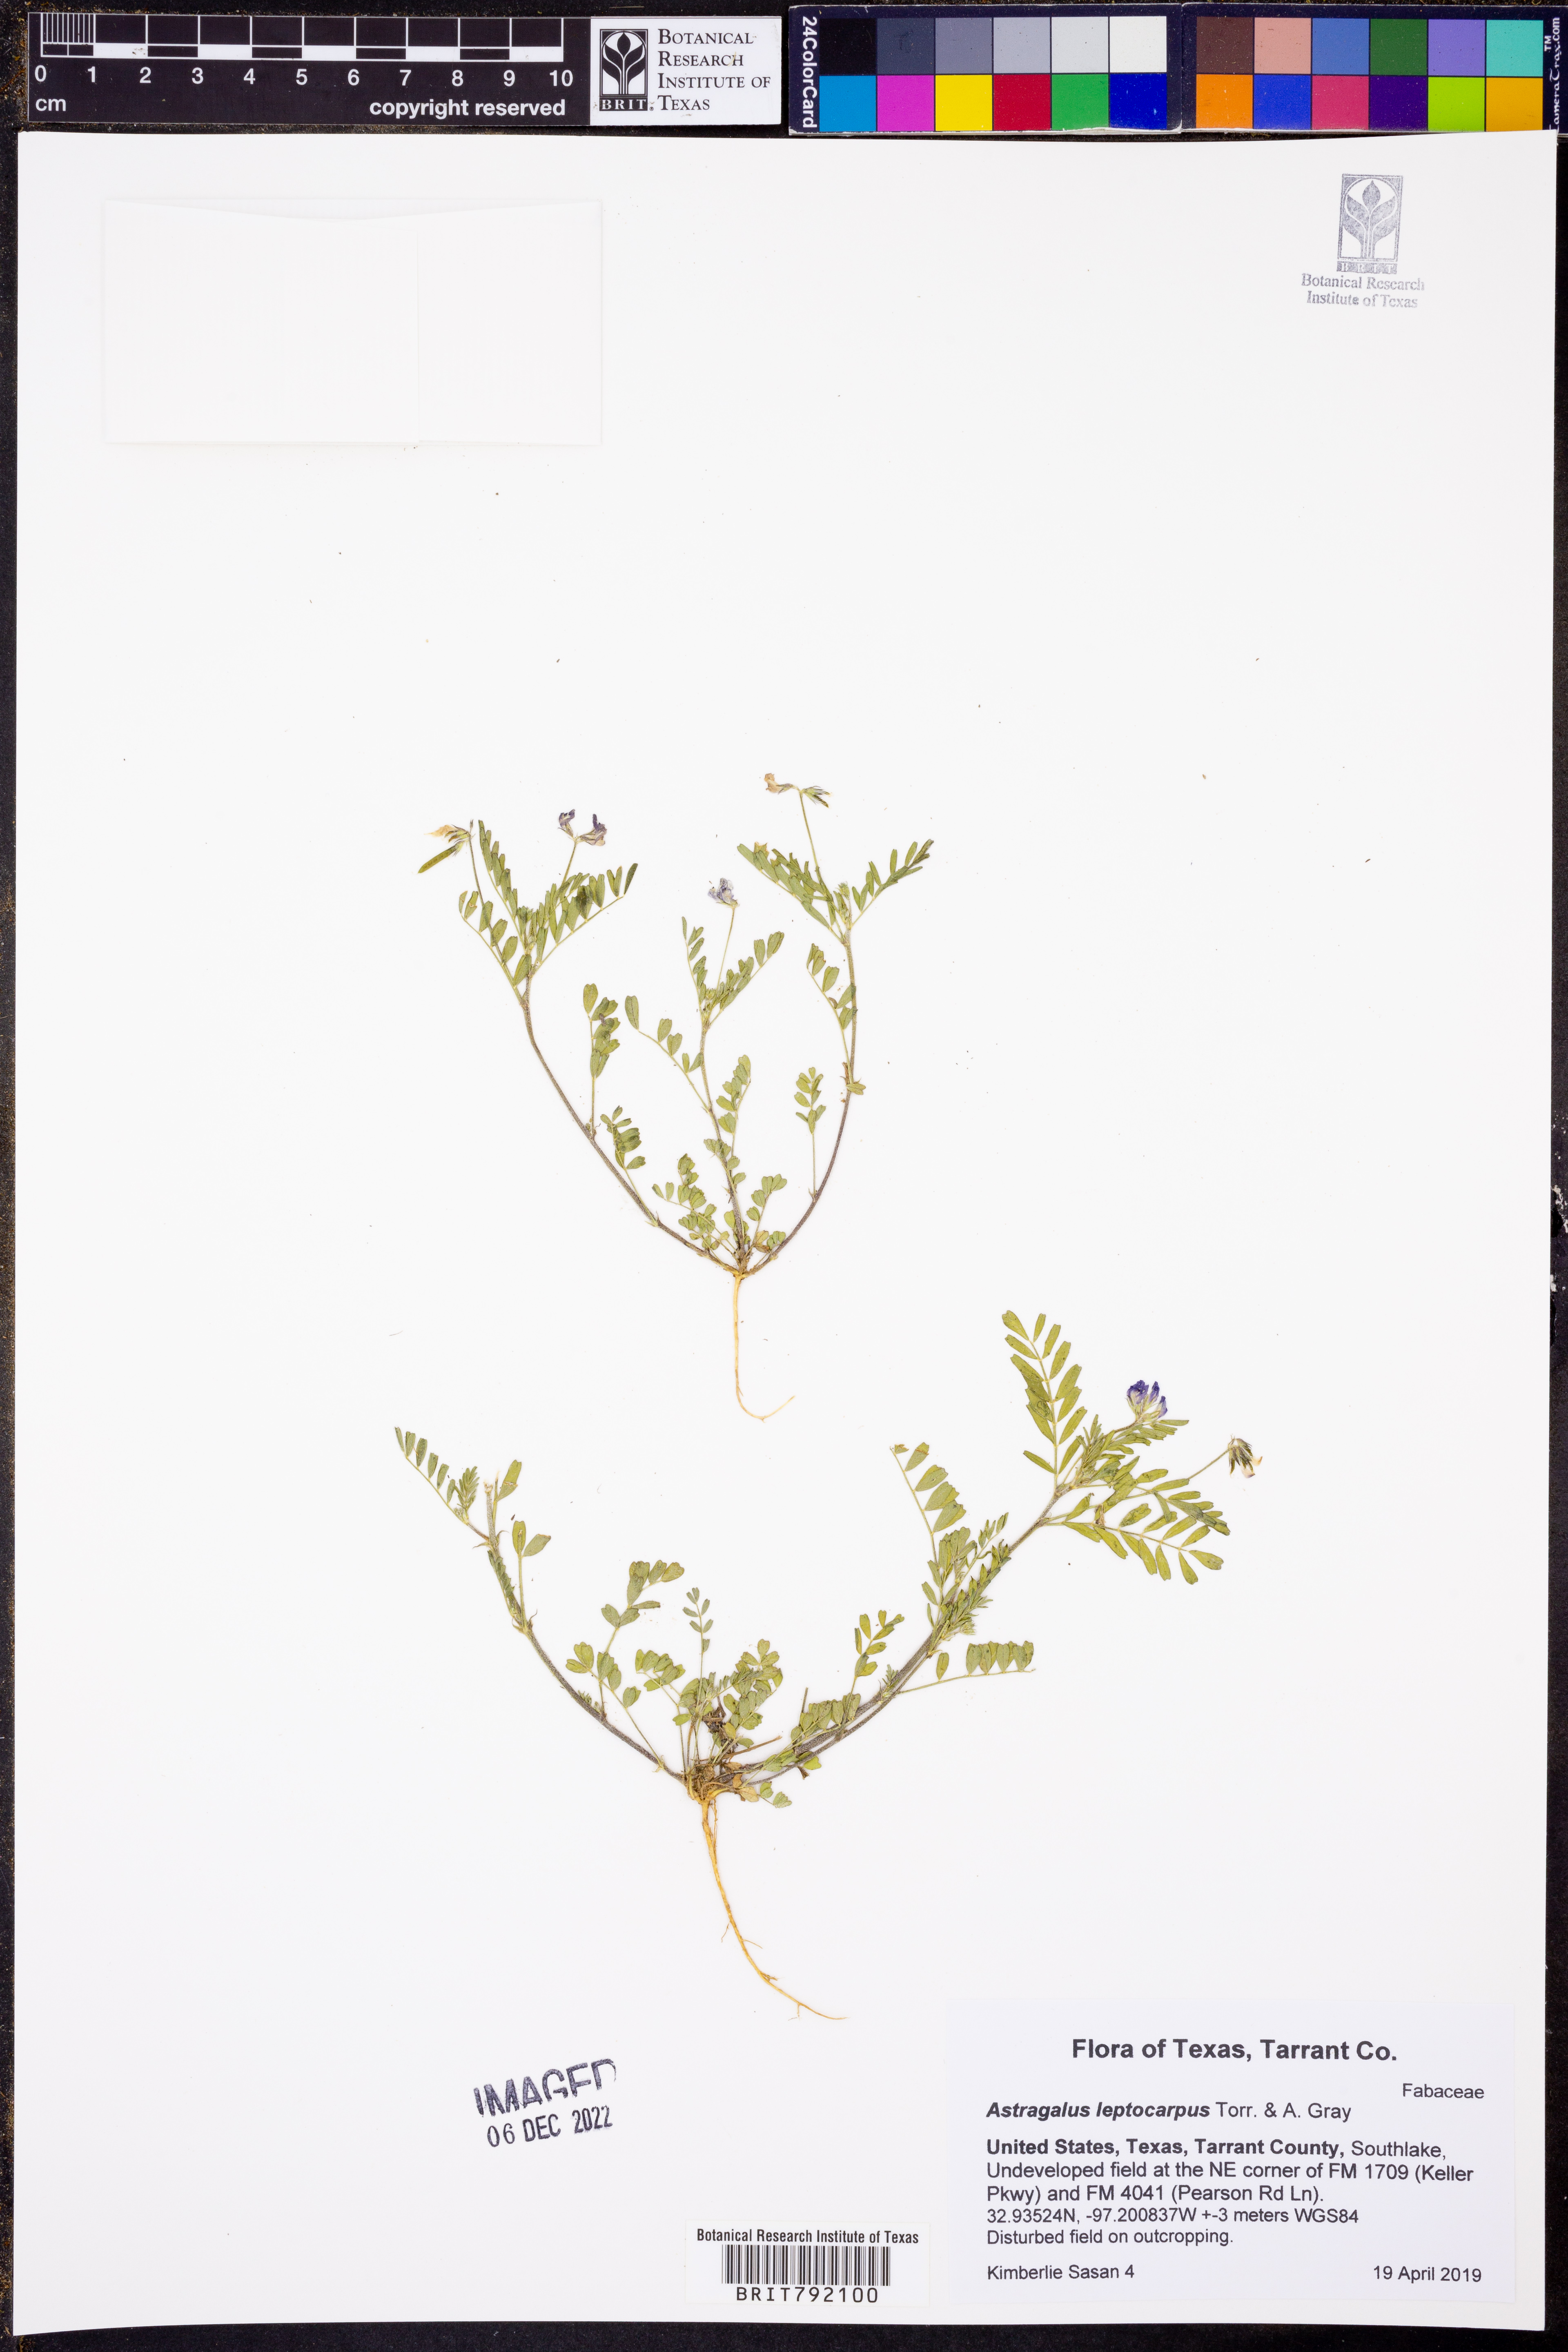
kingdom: Plantae
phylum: Tracheophyta
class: Magnoliopsida
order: Fabales
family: Fabaceae
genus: Astragalus
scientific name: Astragalus leptocarpus
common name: Bodkin milk-vetch
